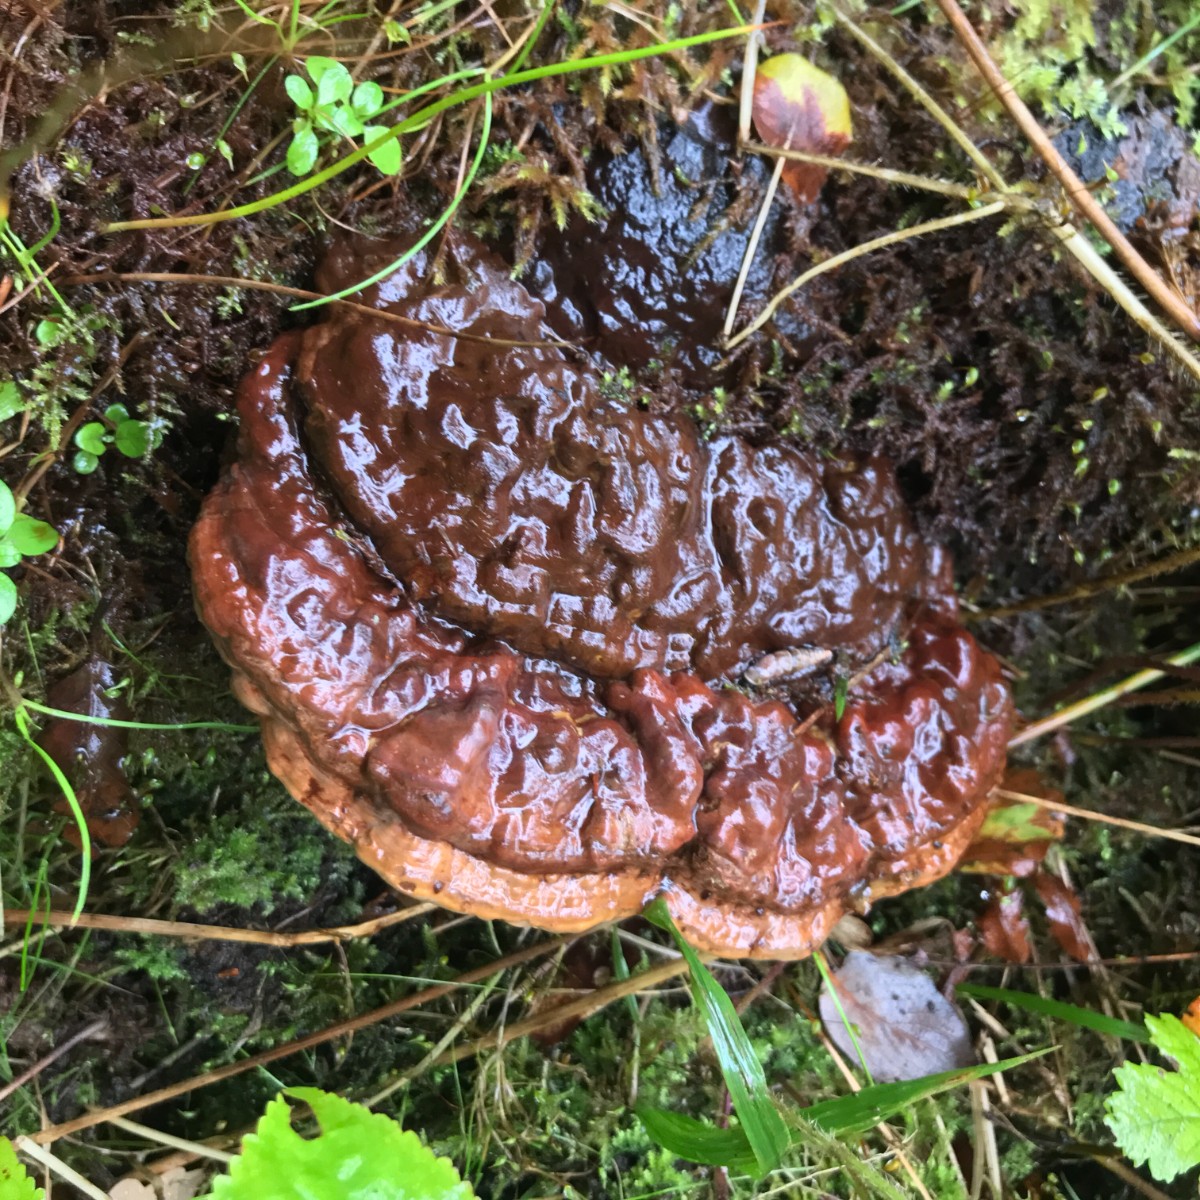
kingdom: Fungi
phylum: Basidiomycota
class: Agaricomycetes
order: Polyporales
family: Polyporaceae
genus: Ganoderma
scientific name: Ganoderma applanatum
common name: flad lakporesvamp
